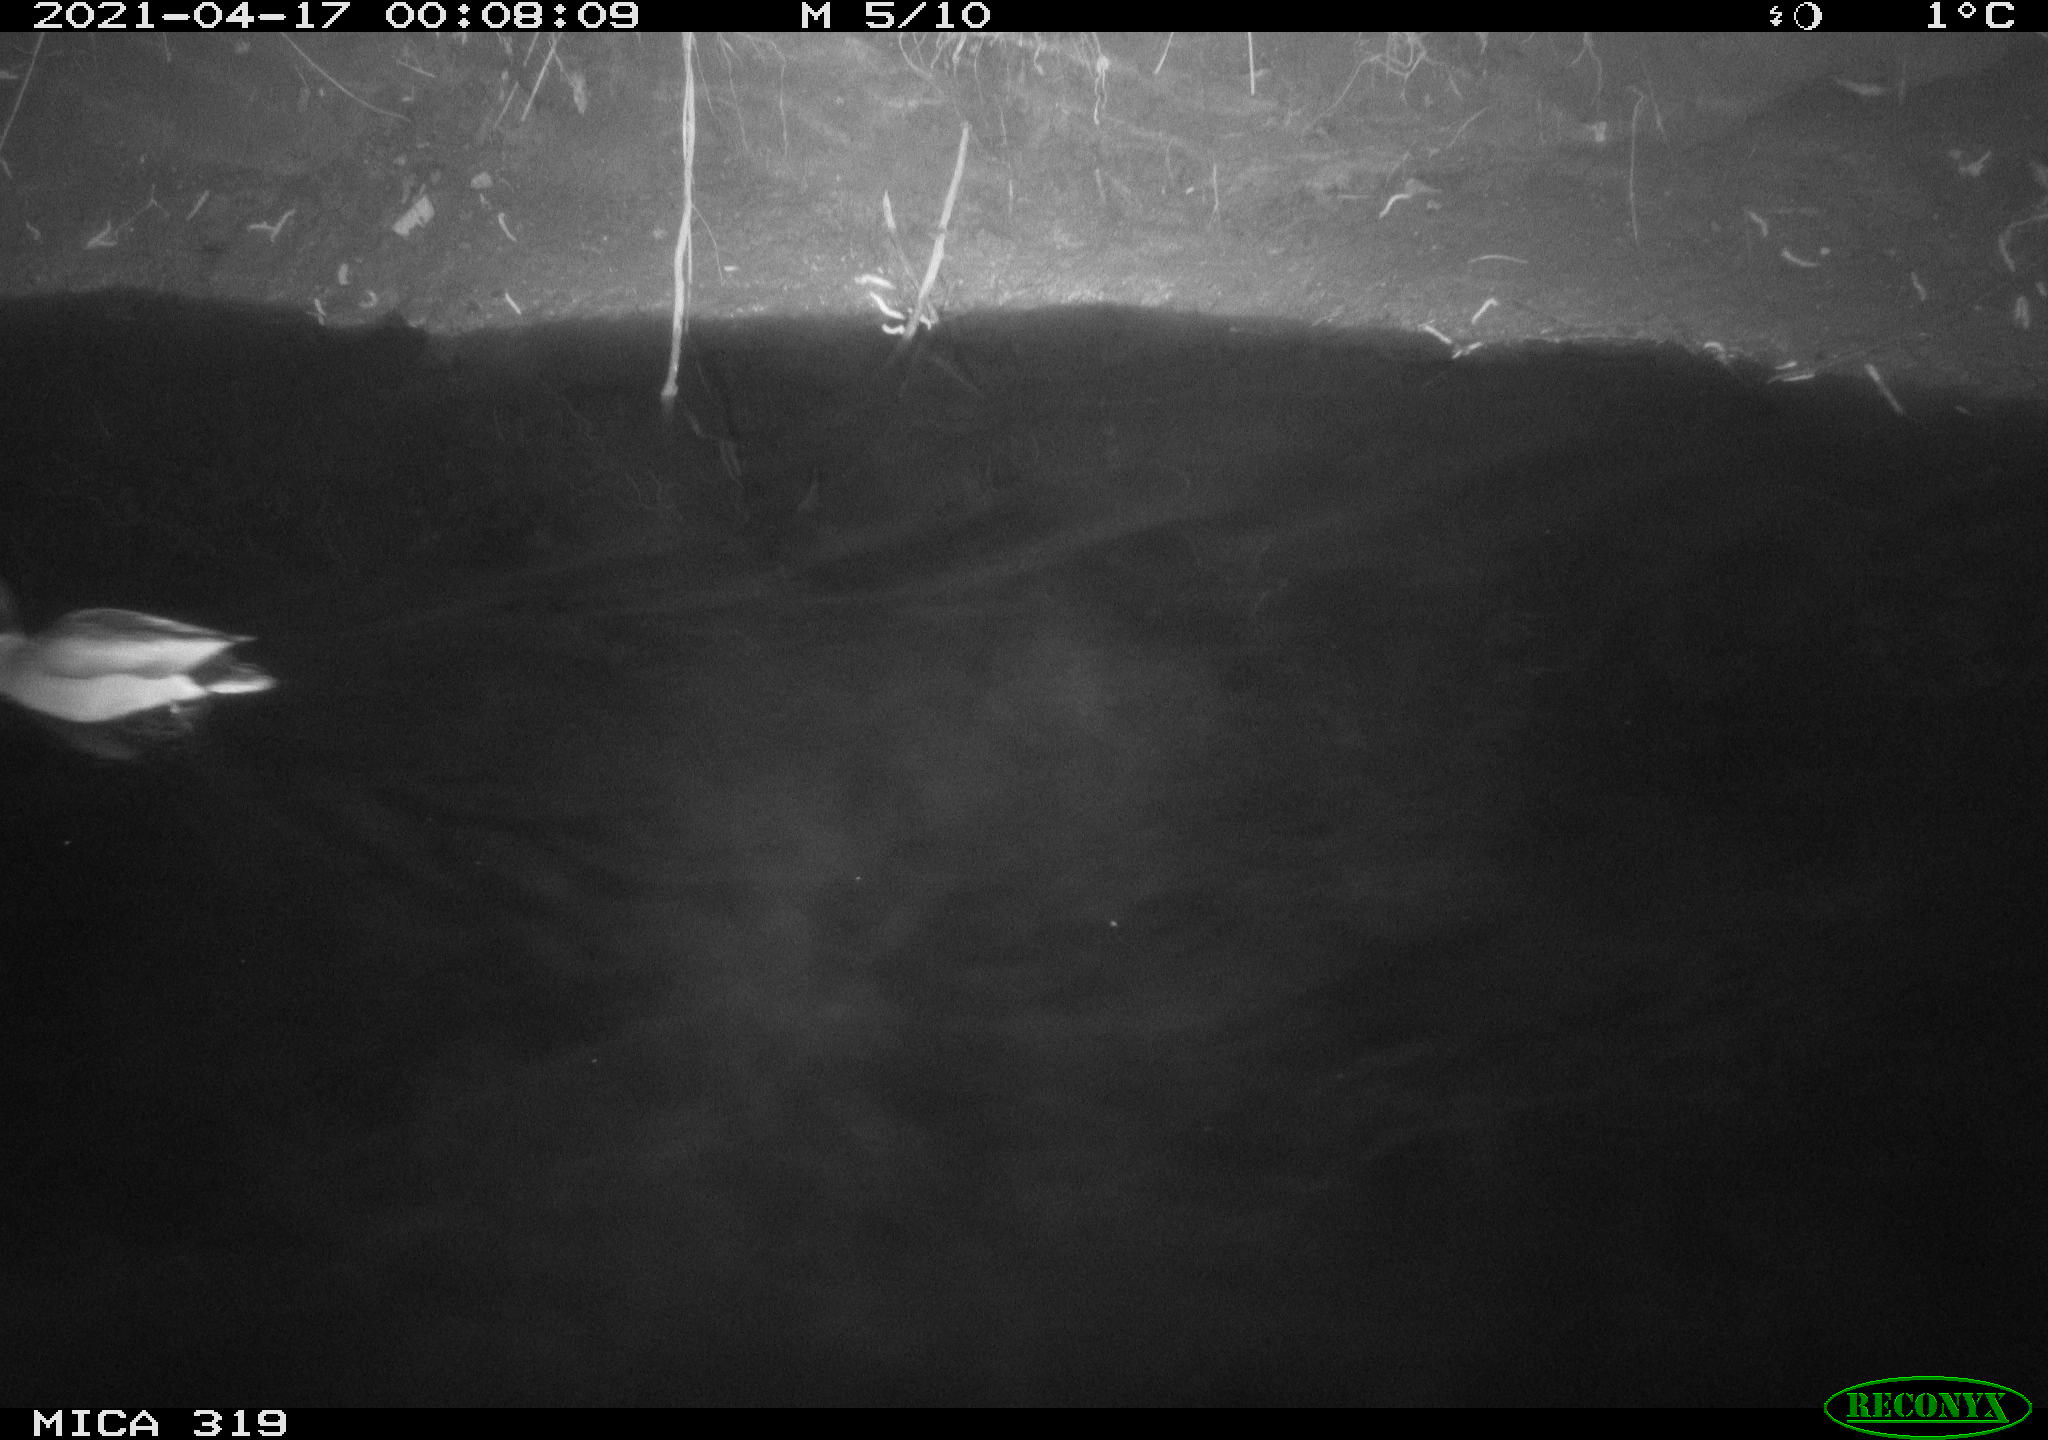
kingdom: Animalia
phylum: Chordata
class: Aves
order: Anseriformes
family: Anatidae
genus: Anas
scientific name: Anas platyrhynchos
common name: Mallard
